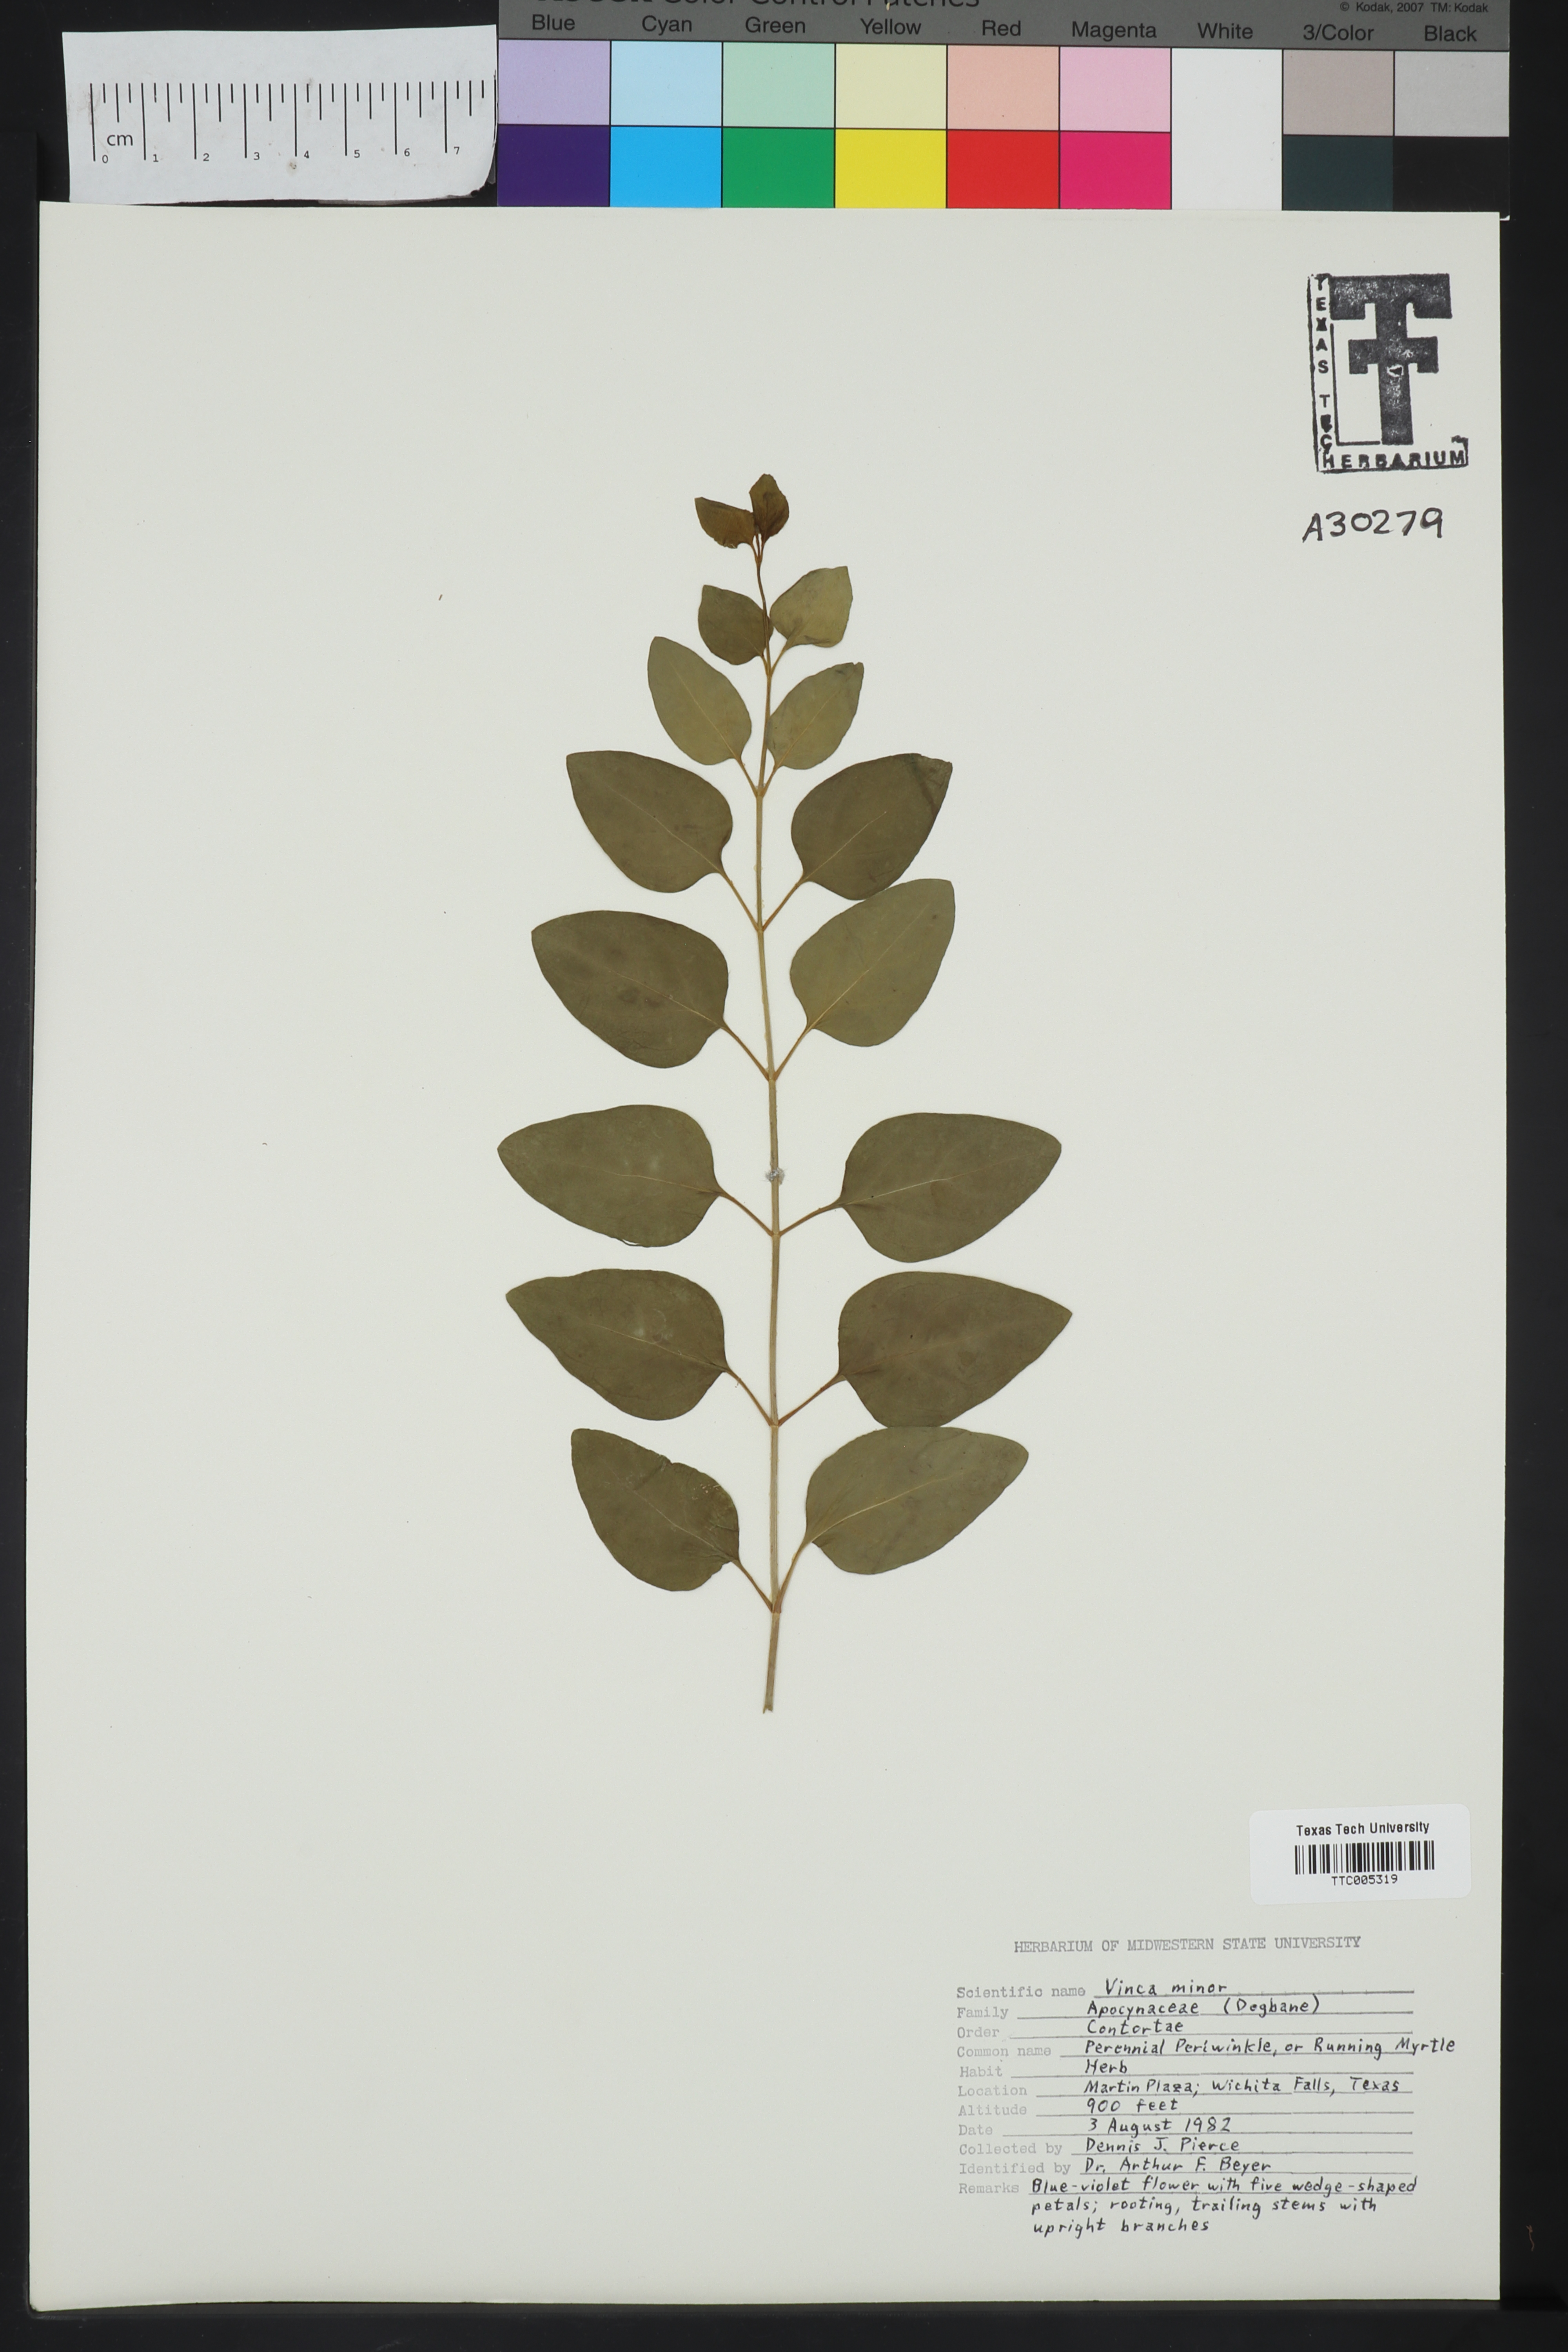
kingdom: Plantae
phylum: Tracheophyta
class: Magnoliopsida
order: Gentianales
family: Apocynaceae
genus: Vinca
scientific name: Vinca minor
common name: Lesser periwinkle
